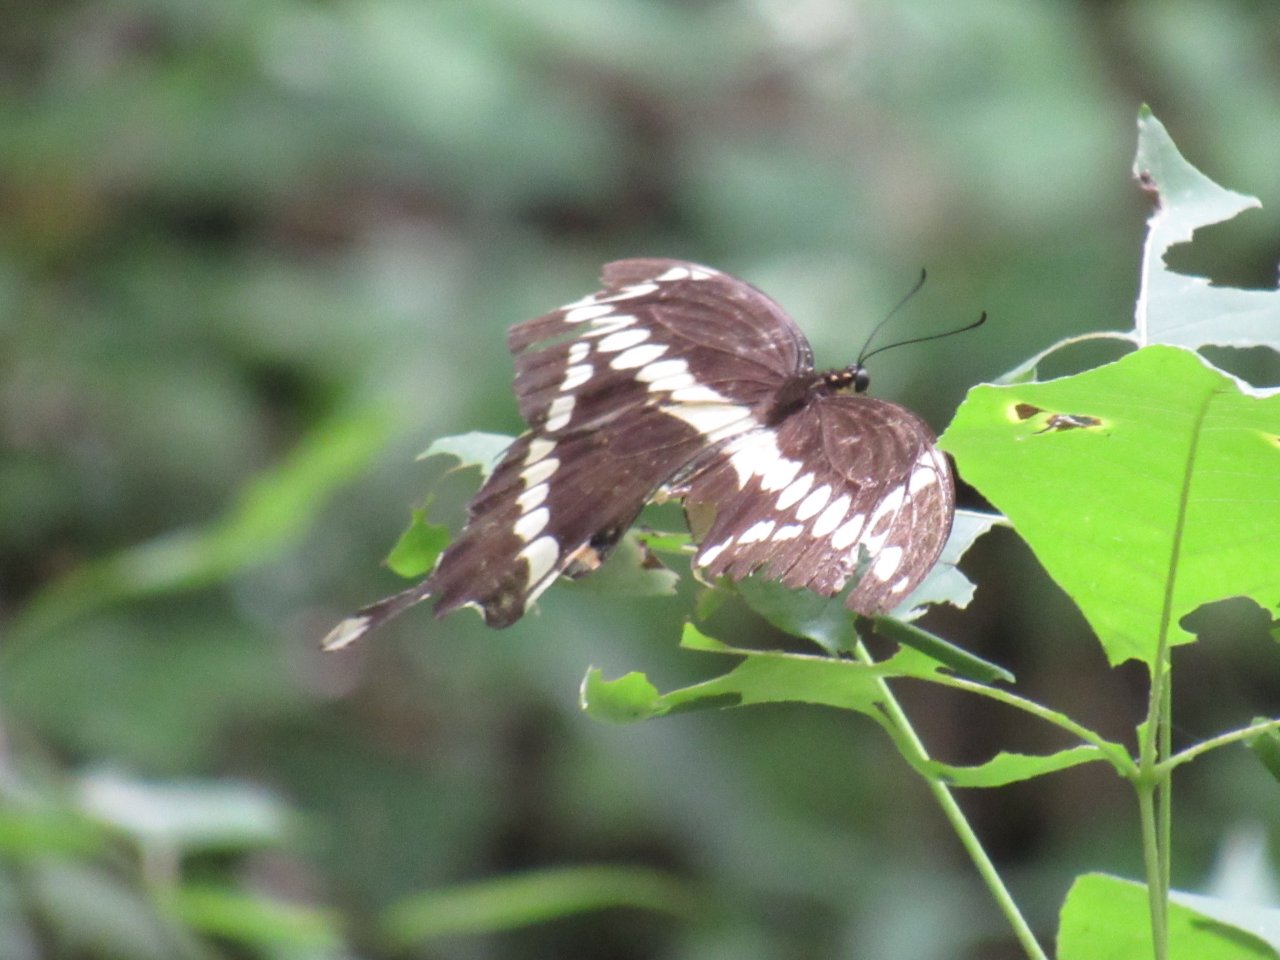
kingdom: Animalia
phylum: Arthropoda
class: Insecta
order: Lepidoptera
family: Papilionidae
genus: Papilio
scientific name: Papilio cresphontes
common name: Eastern Giant Swallowtail
